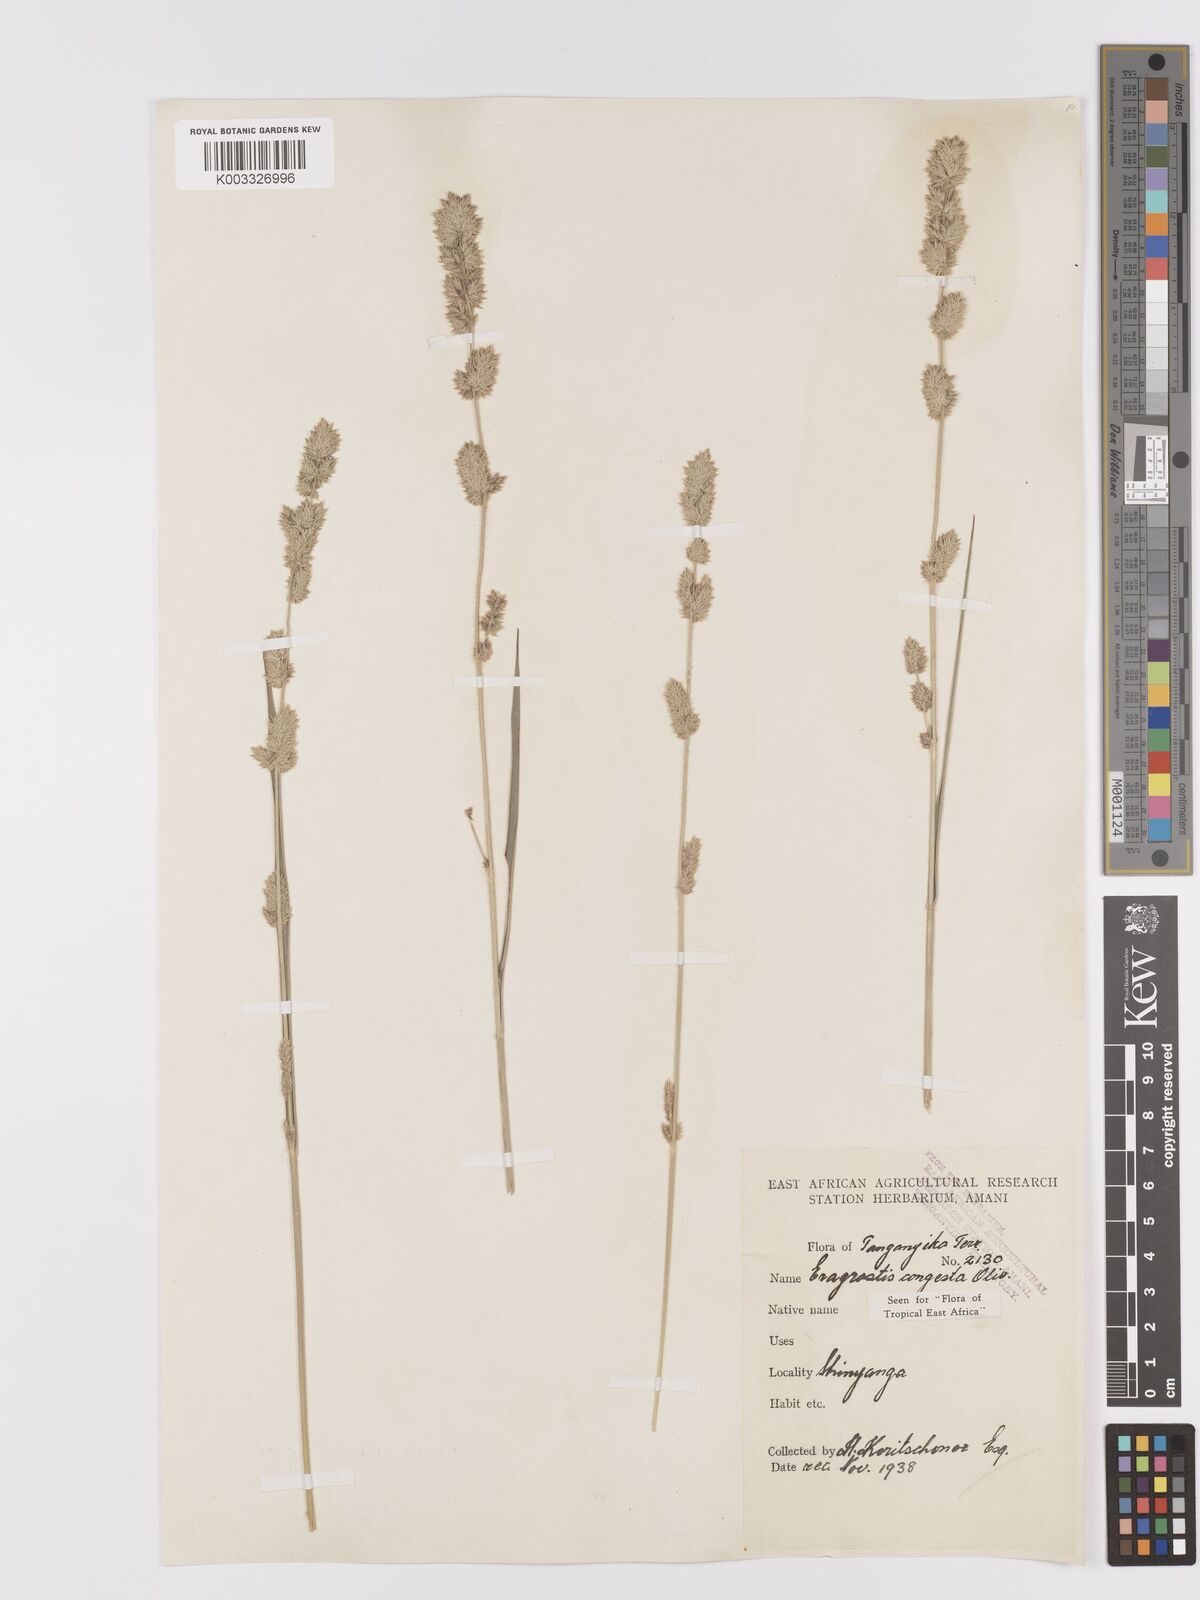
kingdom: Plantae
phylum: Tracheophyta
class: Liliopsida
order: Poales
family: Poaceae
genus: Eragrostis
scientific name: Eragrostis congesta
